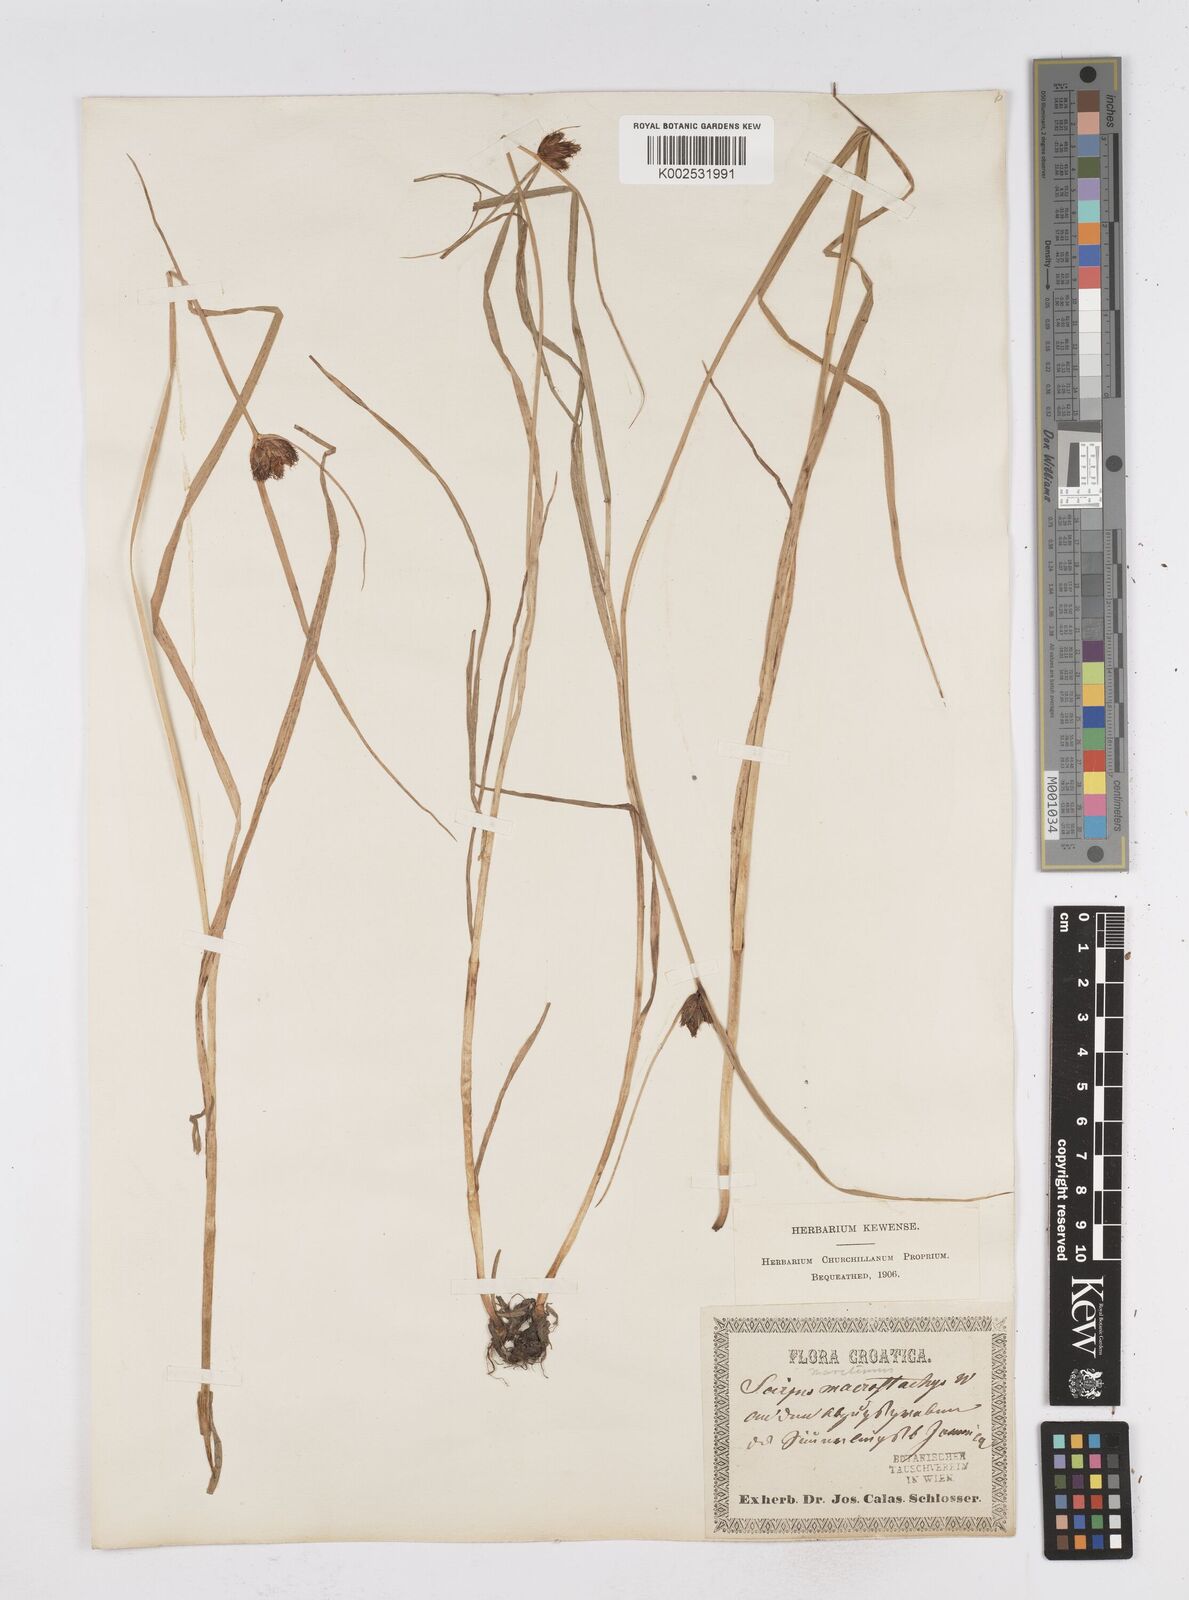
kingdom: Plantae
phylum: Tracheophyta
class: Liliopsida
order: Poales
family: Cyperaceae
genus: Bolboschoenus
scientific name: Bolboschoenus maritimus
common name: Sea club-rush
